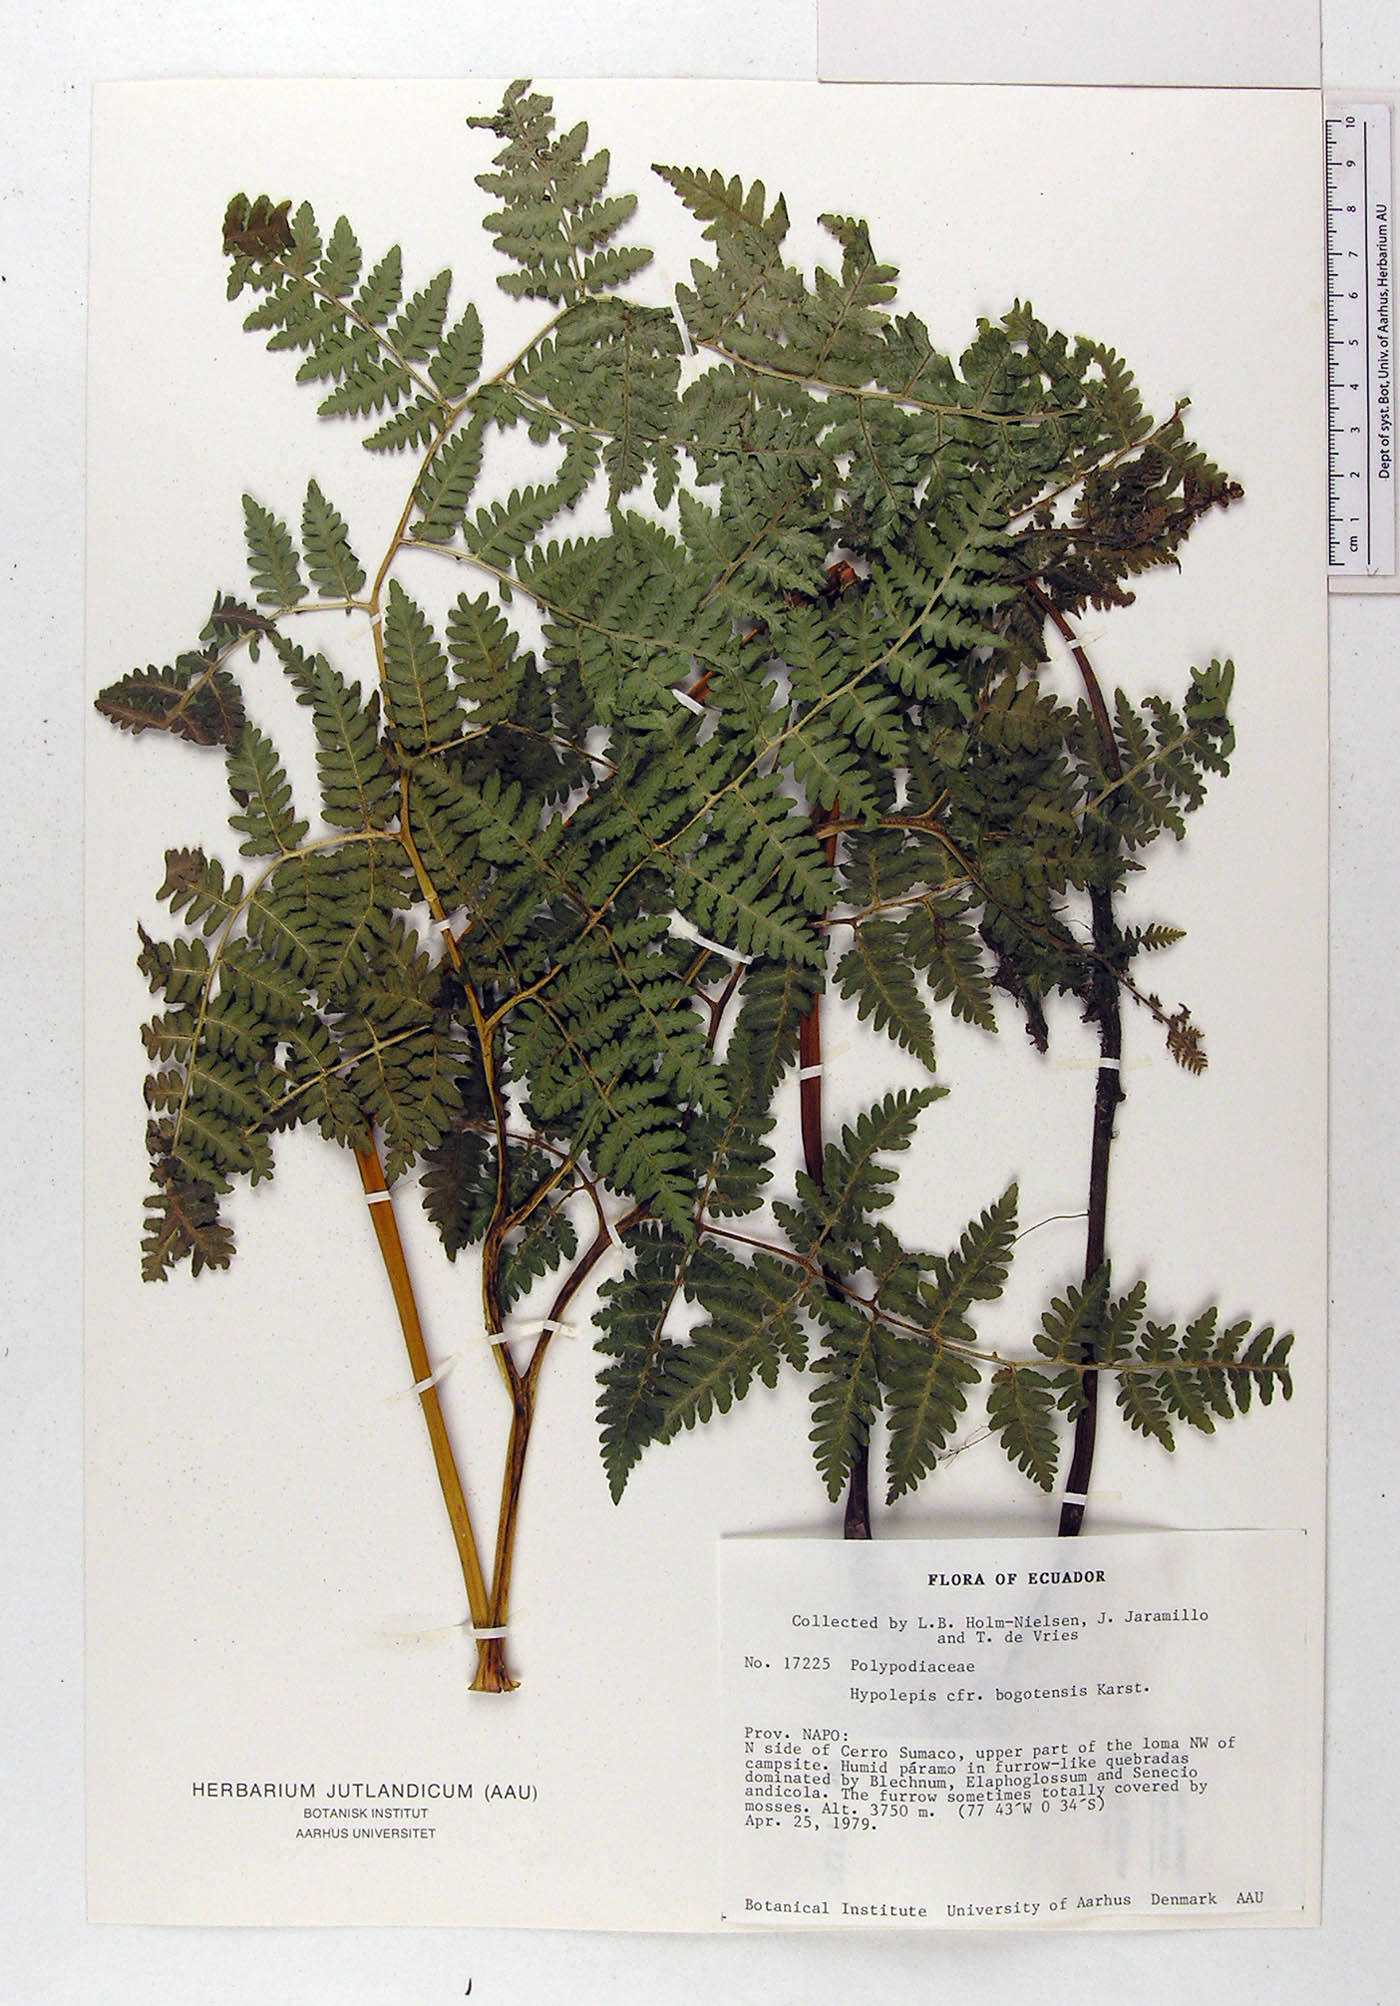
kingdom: Plantae
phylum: Tracheophyta
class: Polypodiopsida
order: Polypodiales
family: Dennstaedtiaceae
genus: Hypolepis
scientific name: Hypolepis bogotensis
